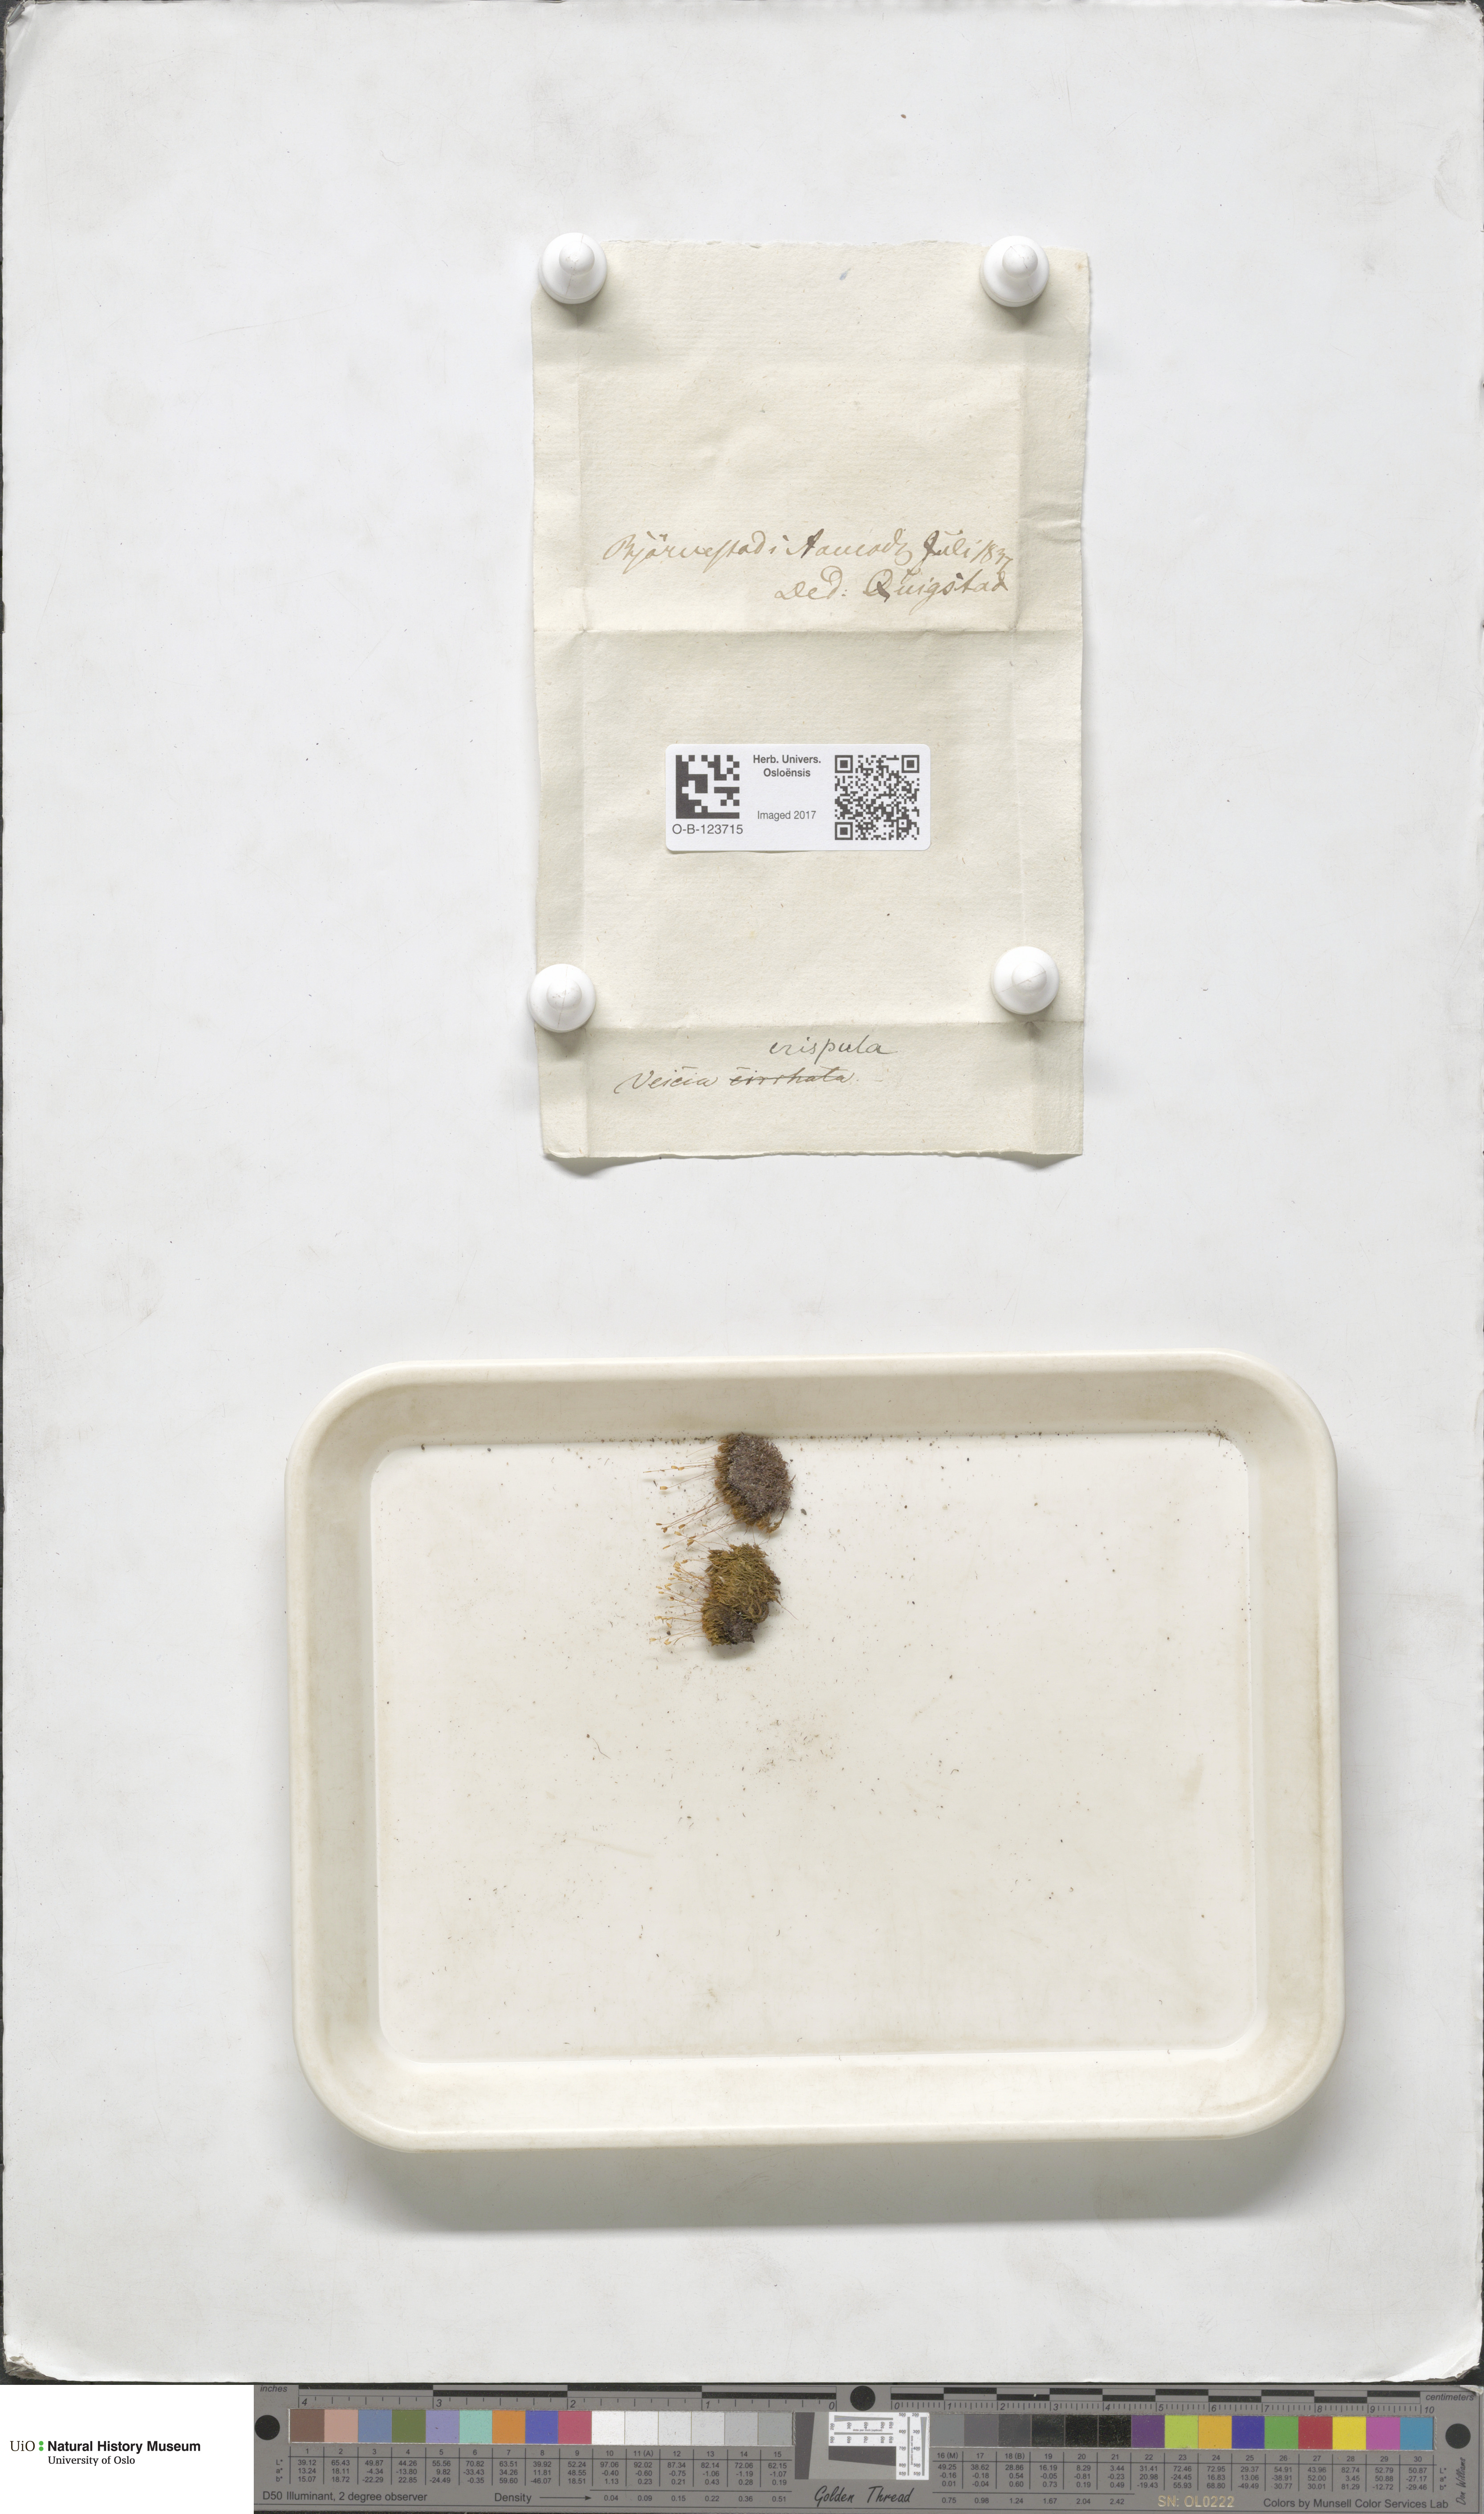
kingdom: Plantae
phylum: Bryophyta
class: Bryopsida
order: Scouleriales
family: Hymenolomataceae
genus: Hymenoloma
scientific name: Hymenoloma crispulum
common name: Mountain pincushion
